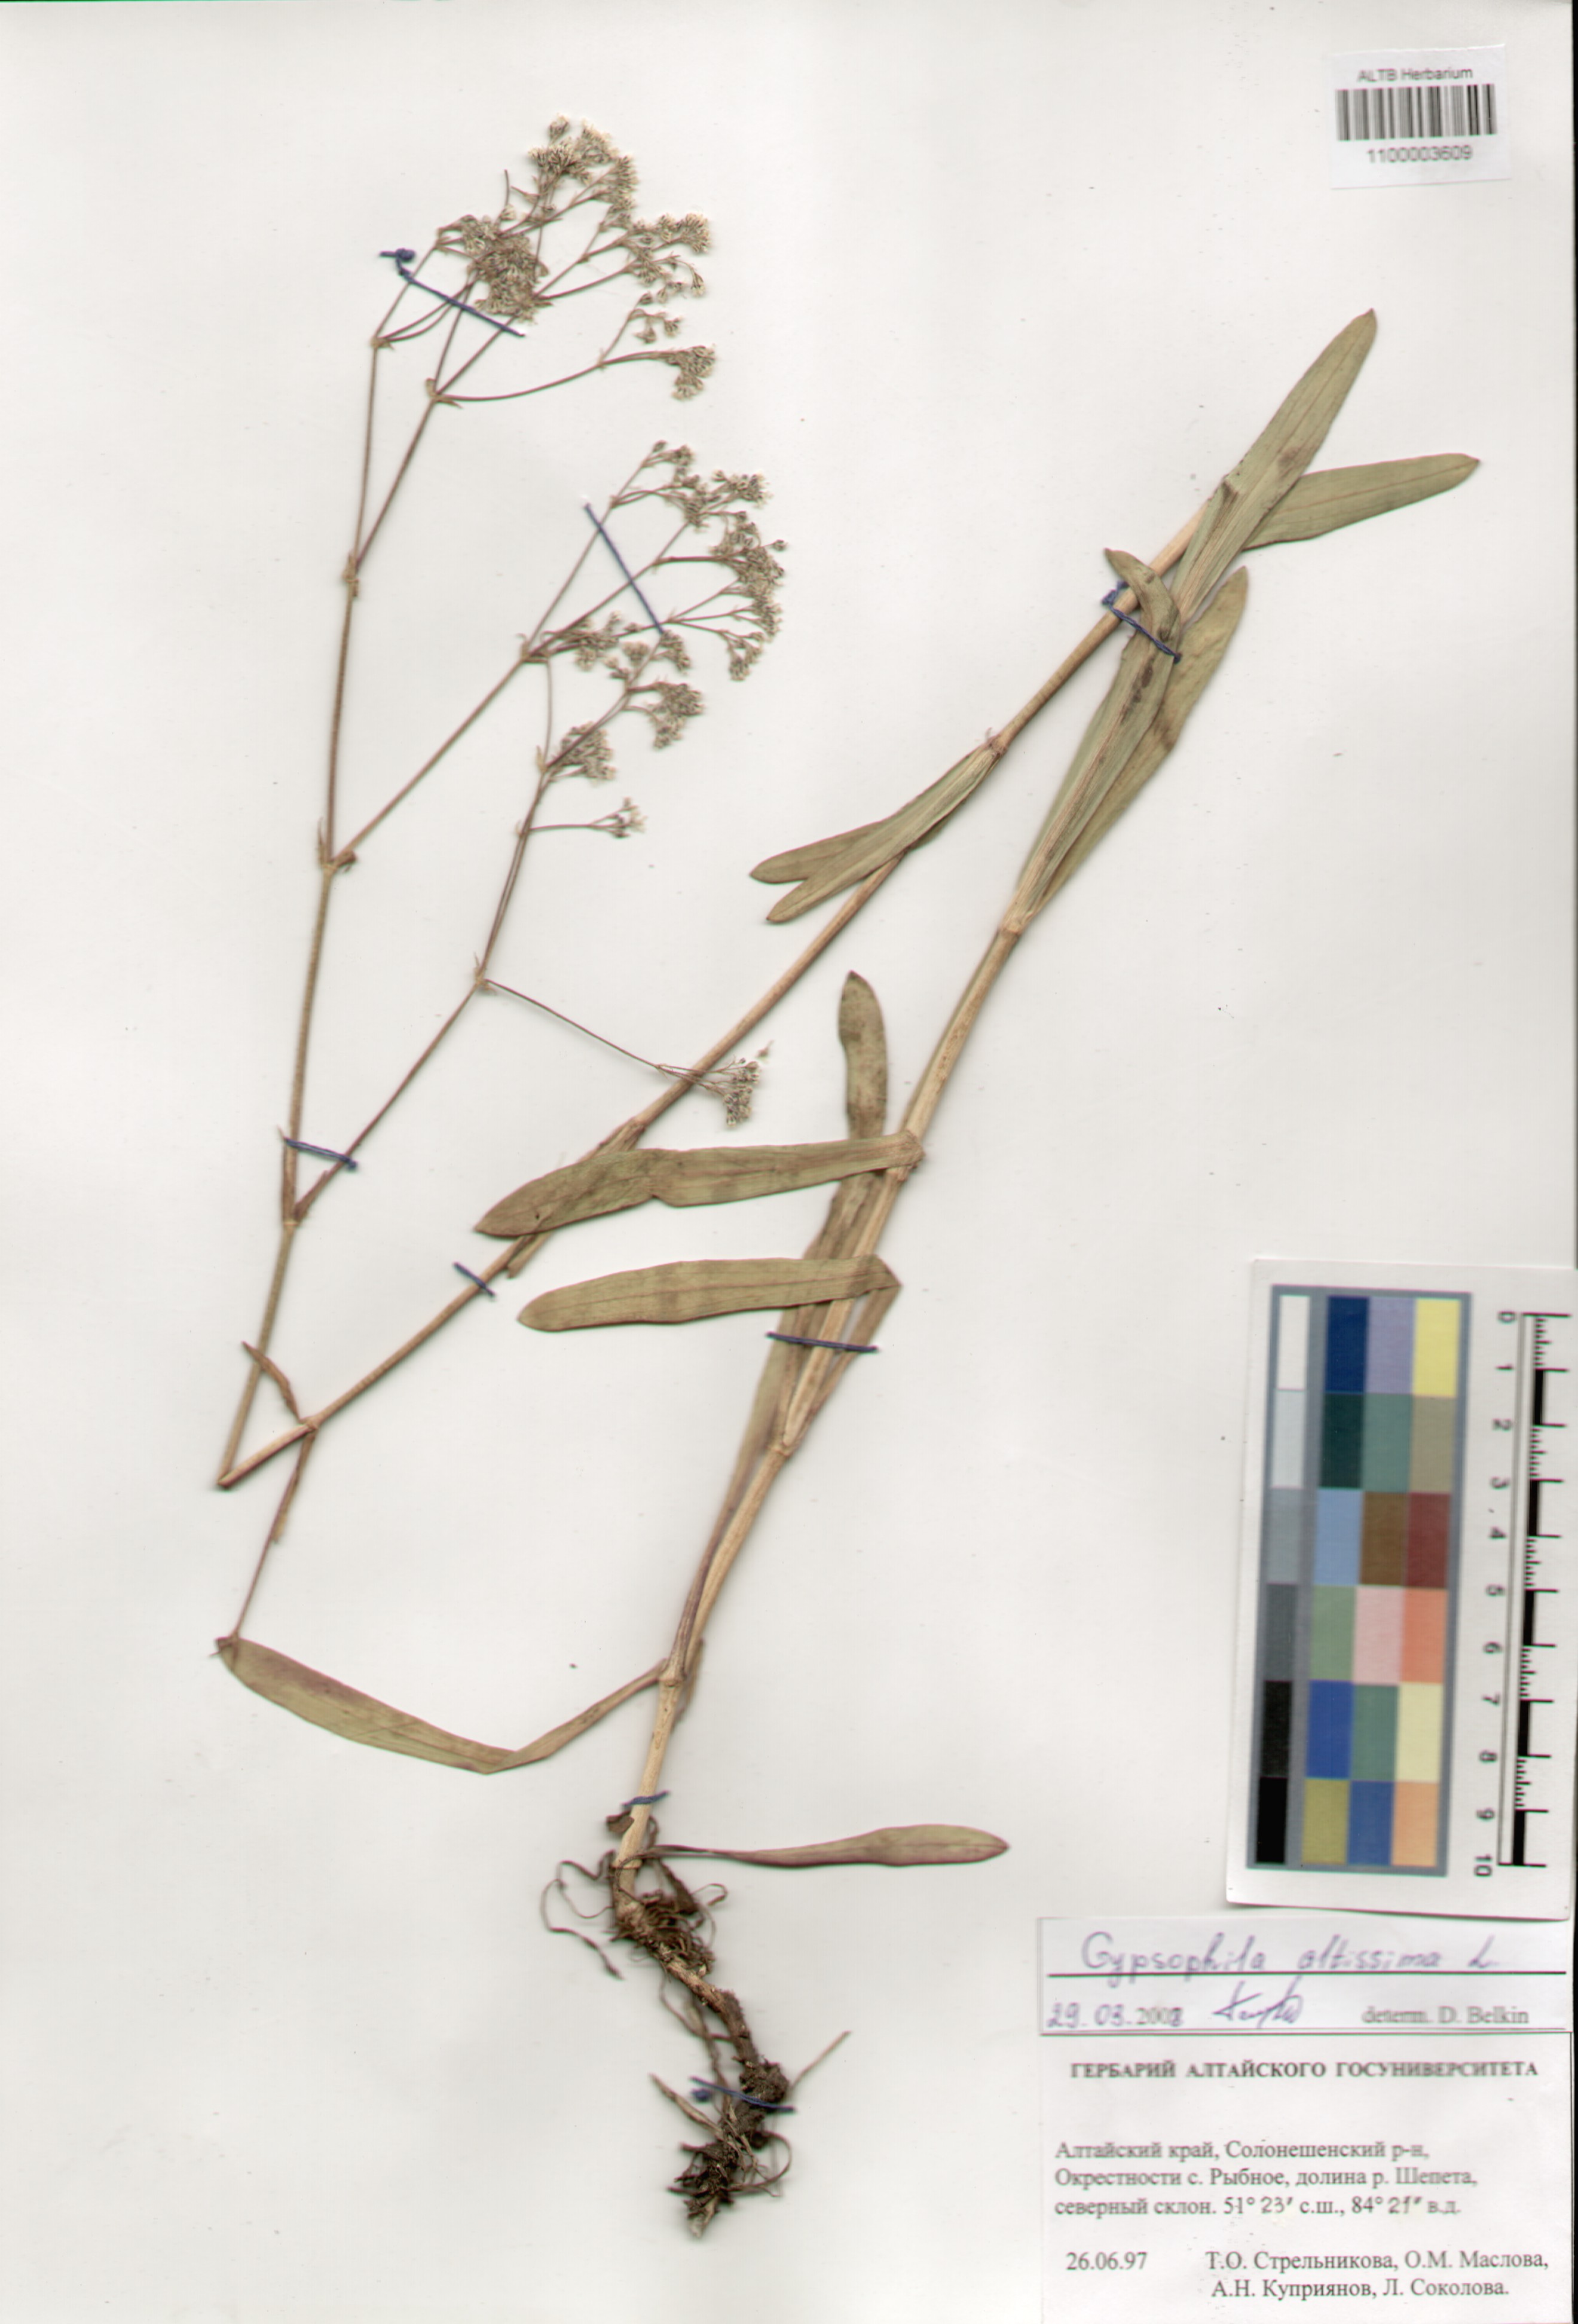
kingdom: Plantae
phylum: Tracheophyta
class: Magnoliopsida
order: Caryophyllales
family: Caryophyllaceae
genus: Gypsophila
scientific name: Gypsophila altissima
